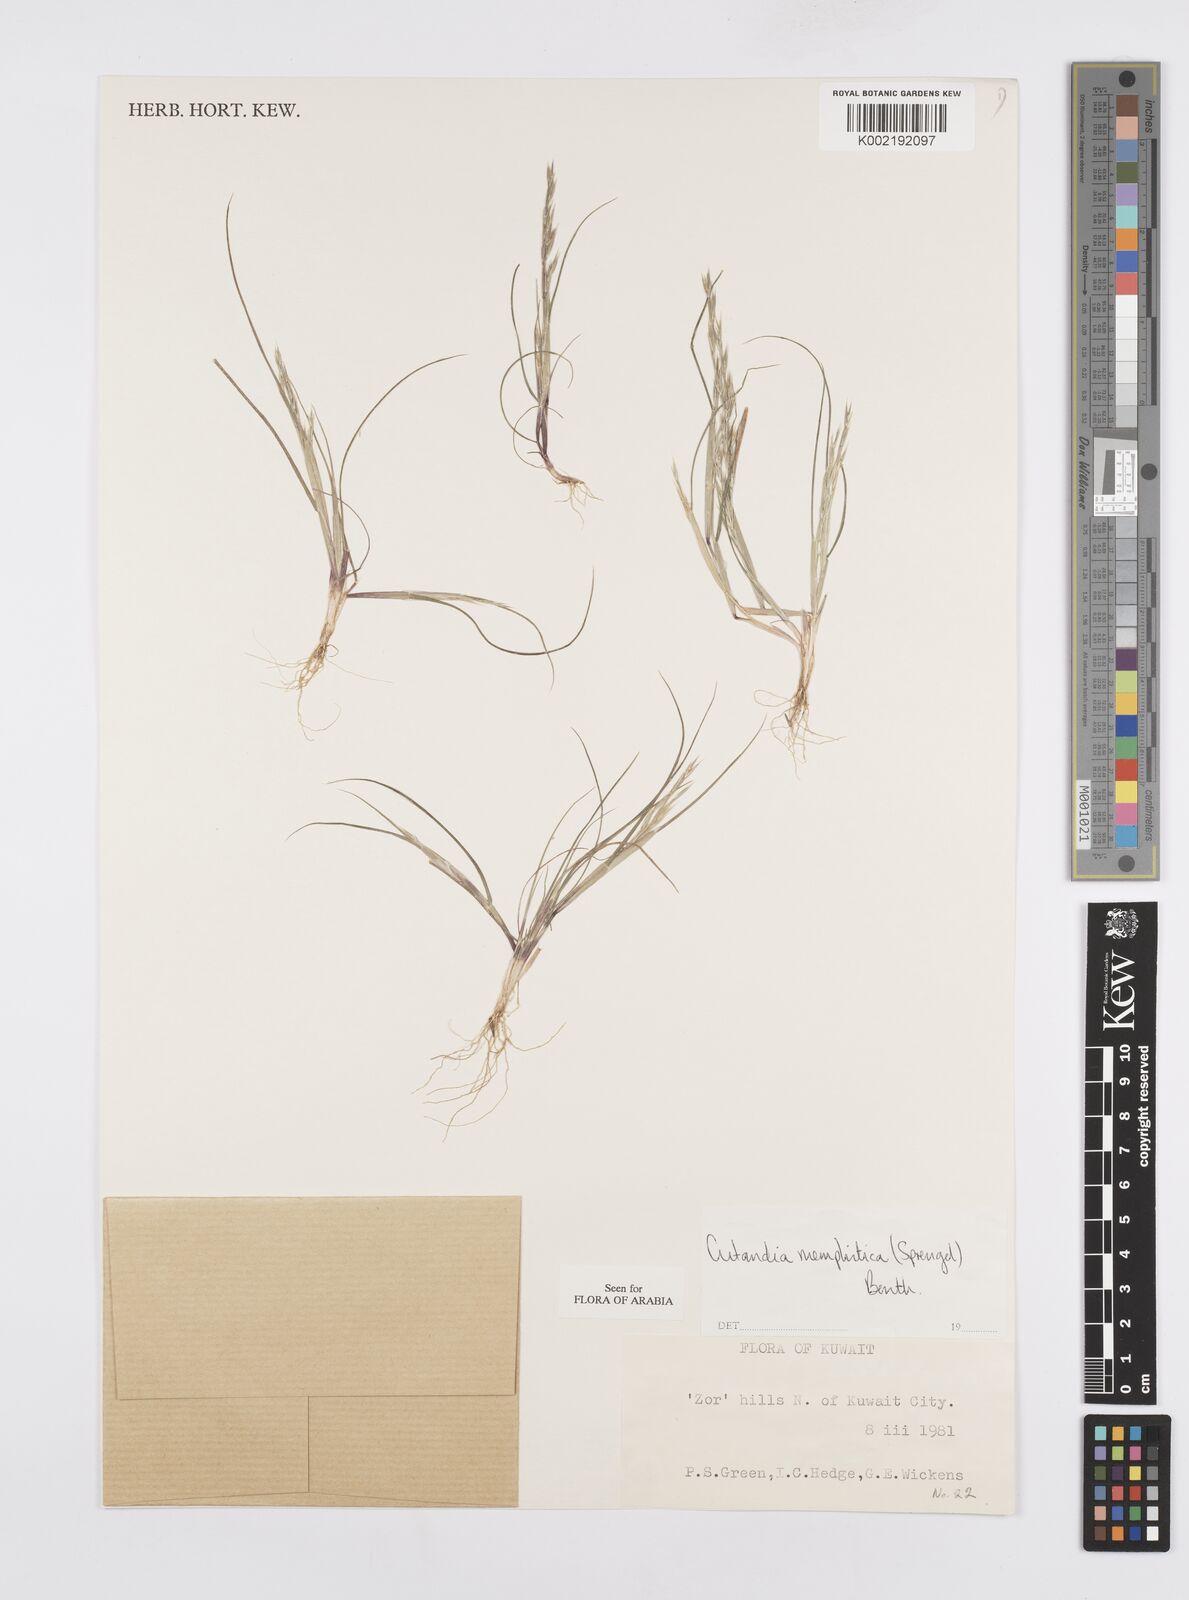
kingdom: Plantae
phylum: Tracheophyta
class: Liliopsida
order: Poales
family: Poaceae
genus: Cutandia
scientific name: Cutandia memphitica
